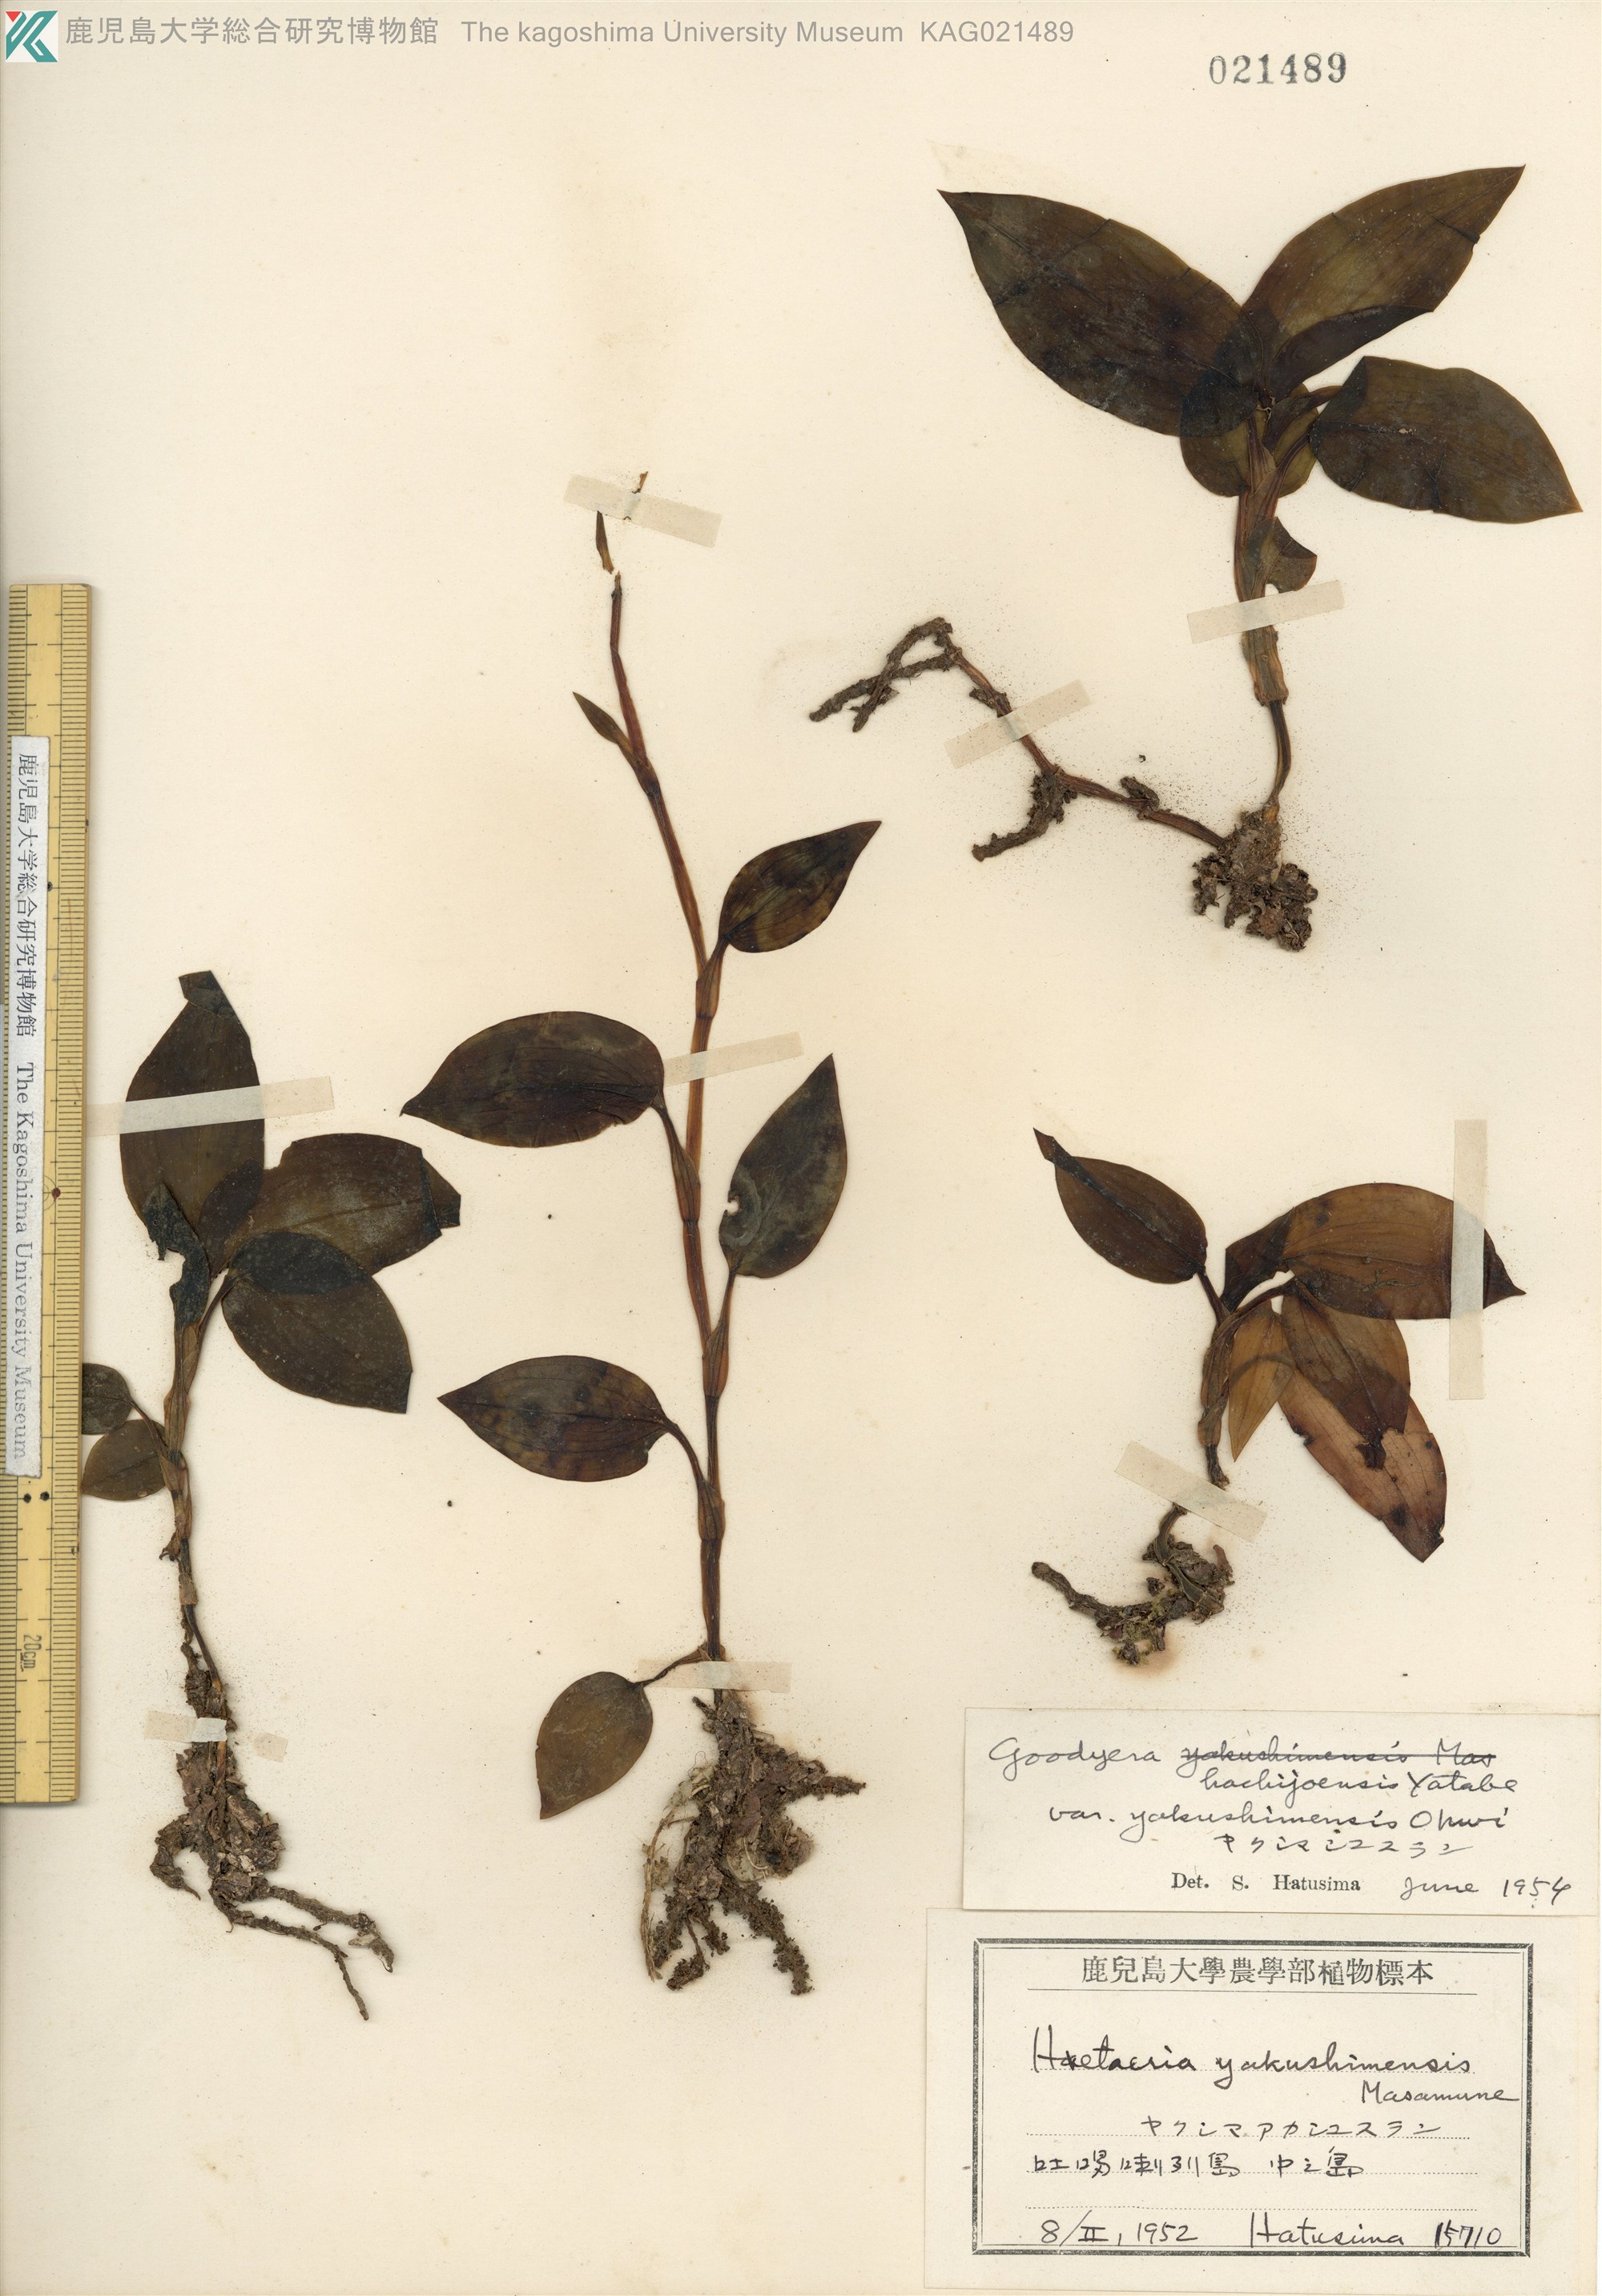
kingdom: Plantae
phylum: Tracheophyta
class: Liliopsida
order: Asparagales
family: Orchidaceae
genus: Goodyera
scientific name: Goodyera hachijoensis
